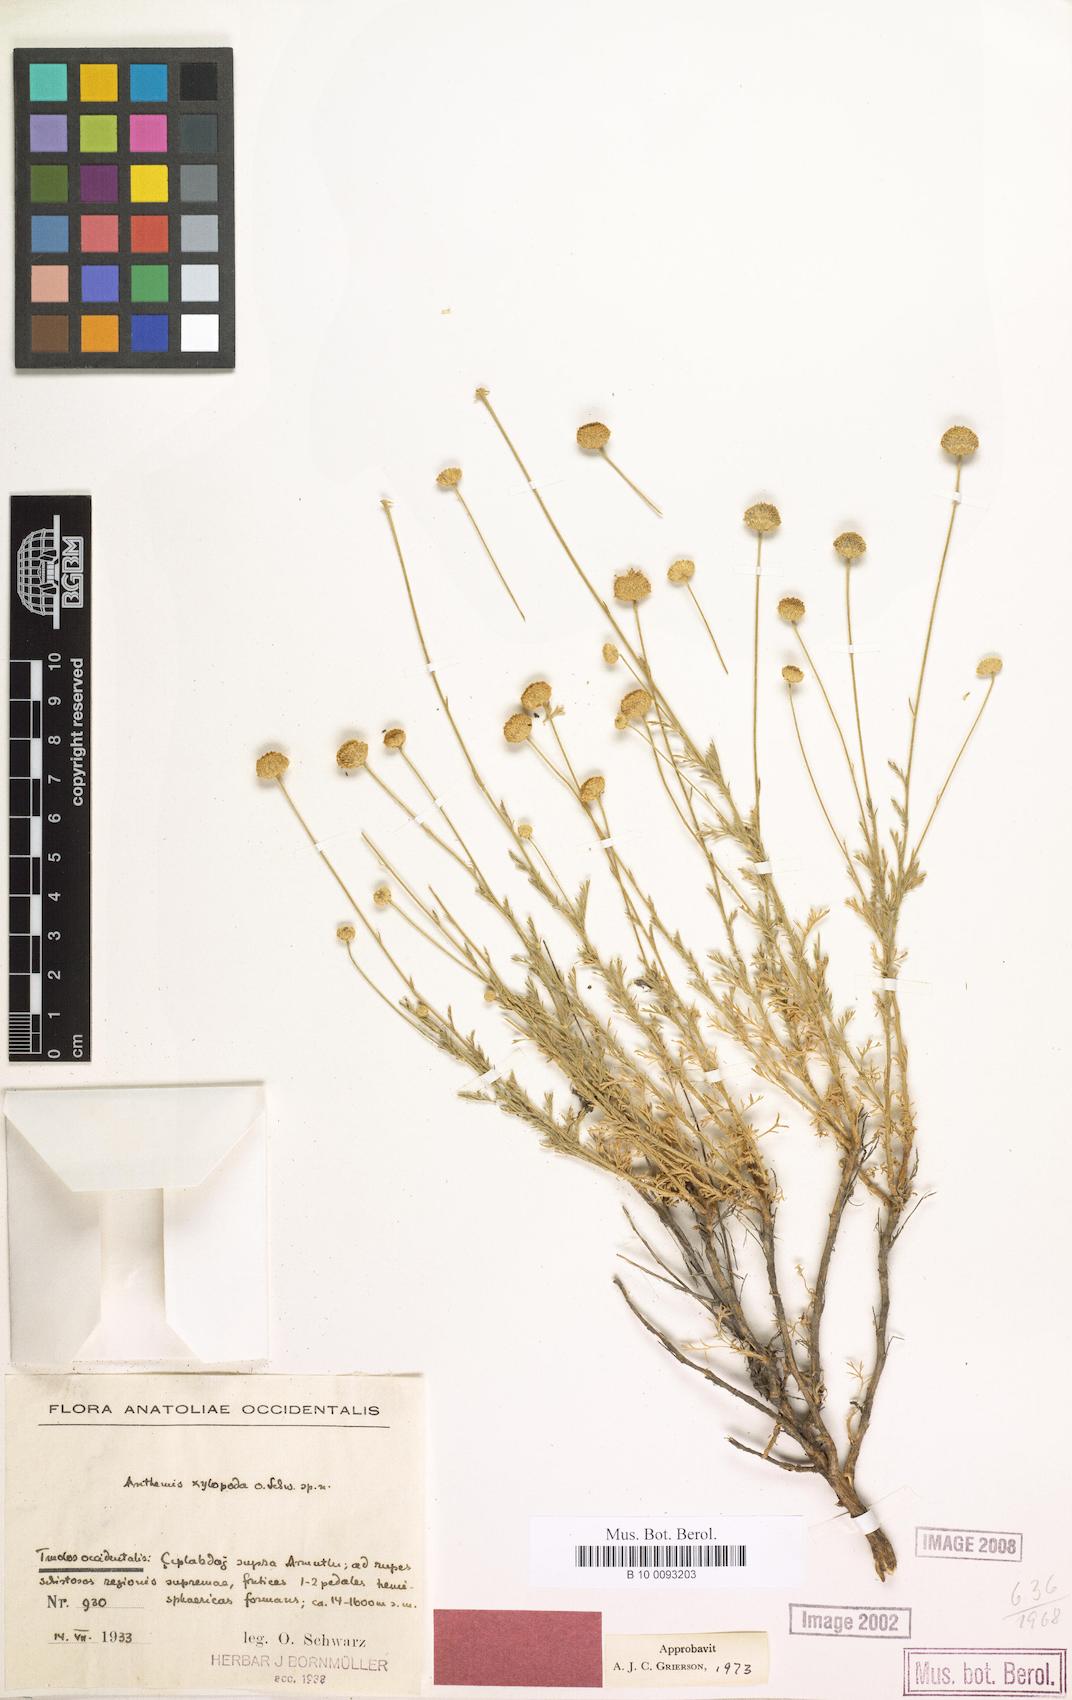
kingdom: Plantae
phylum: Tracheophyta
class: Magnoliopsida
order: Asterales
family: Asteraceae
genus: Anthemis
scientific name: Anthemis xylopoda
